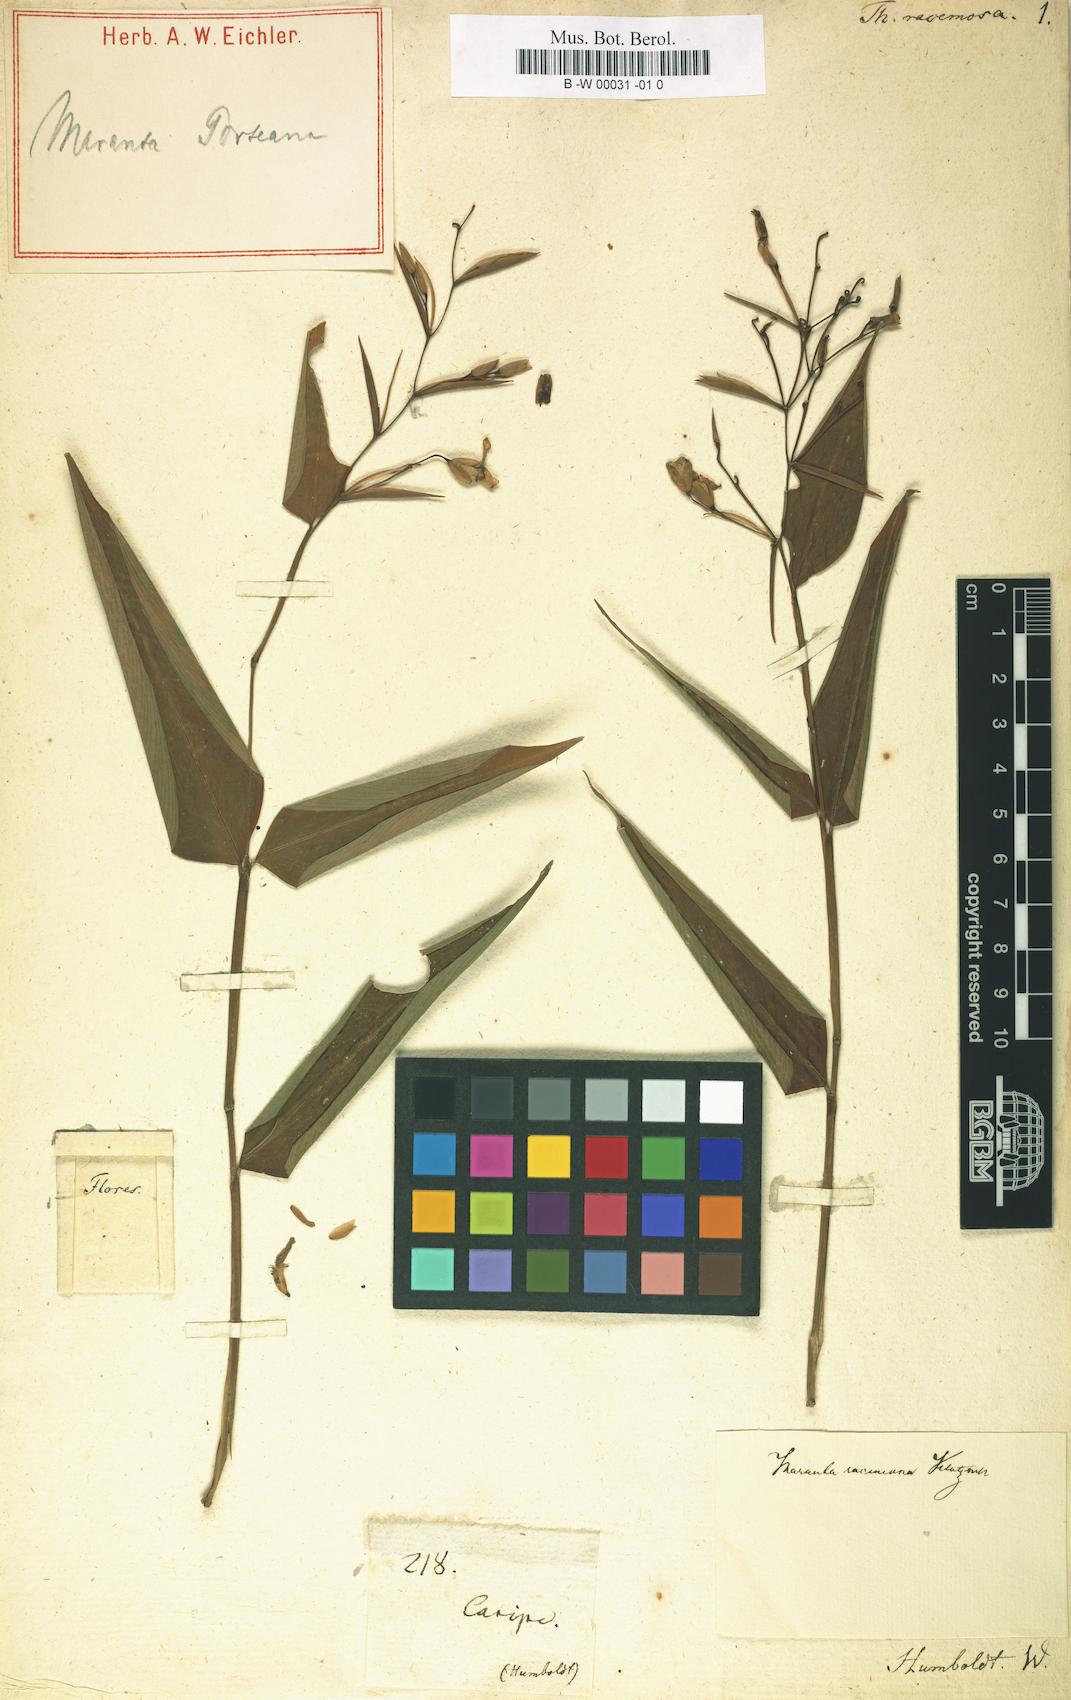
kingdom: Plantae
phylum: Tracheophyta
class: Liliopsida
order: Zingiberales
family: Marantaceae
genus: Stromanthe
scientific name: Stromanthe tonckat
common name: Stromanthe
